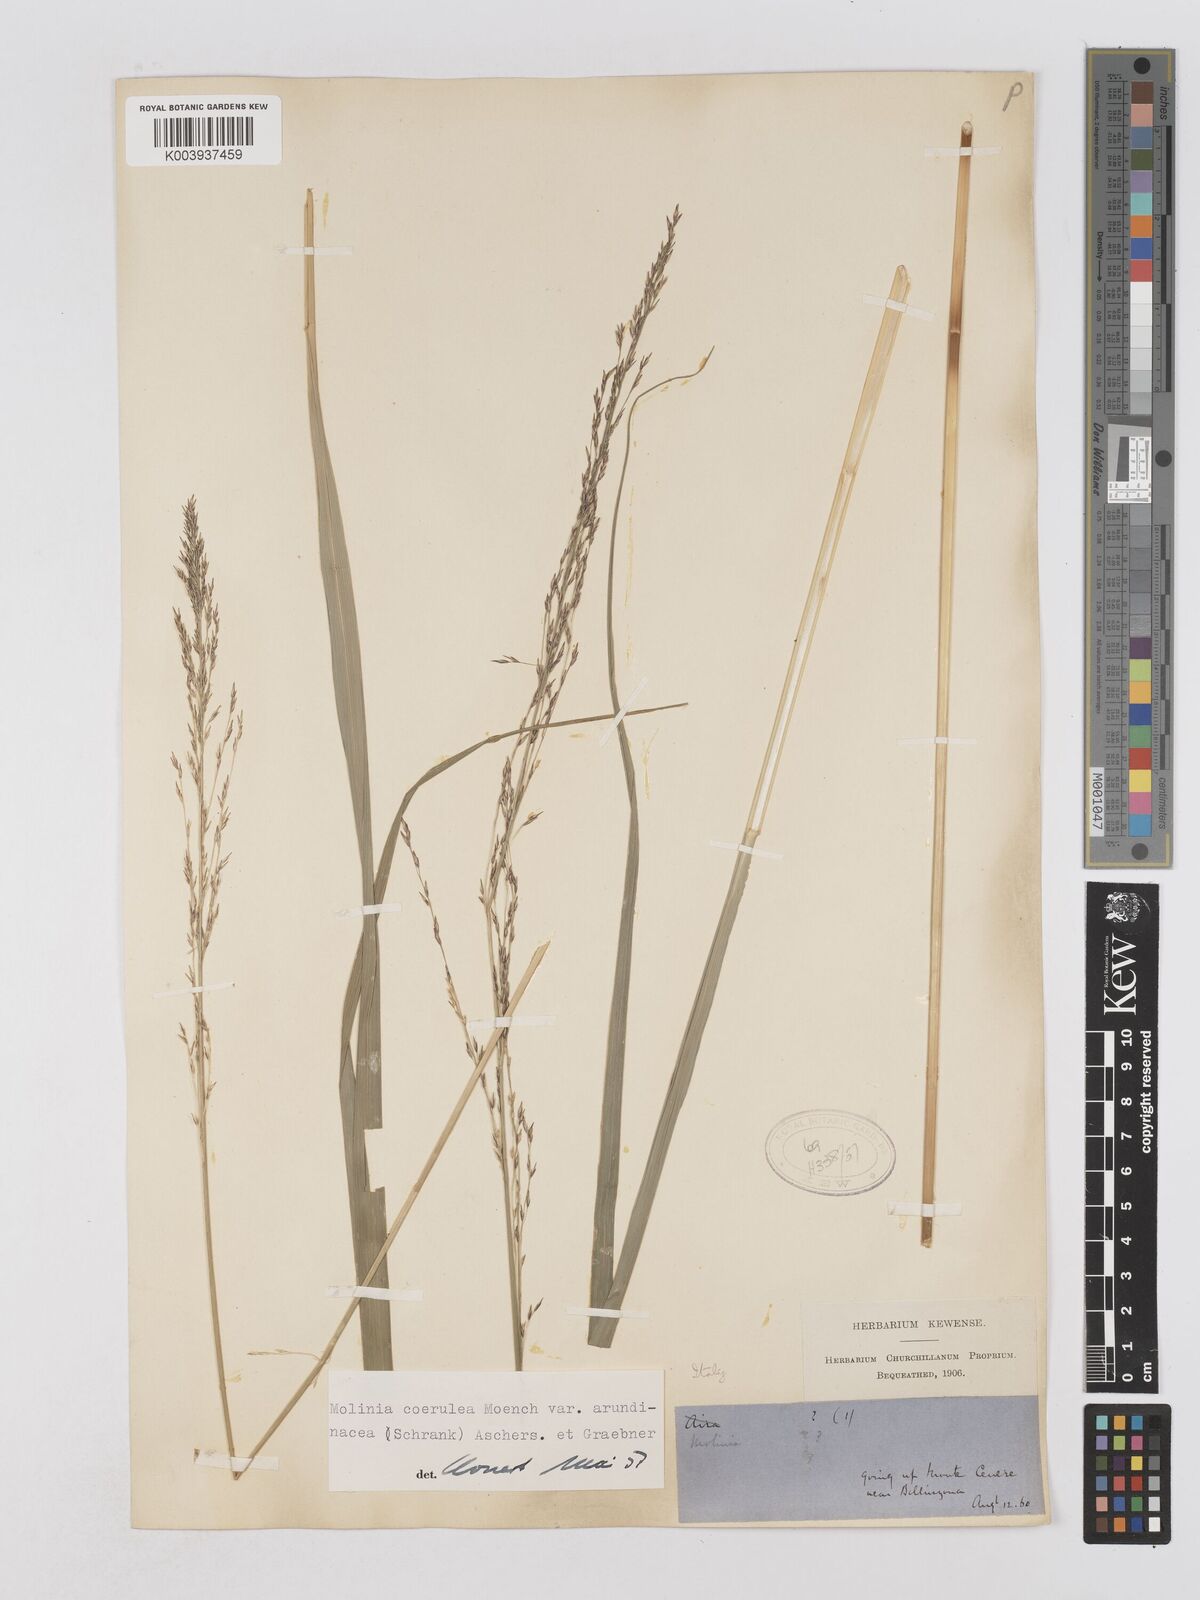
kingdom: Plantae
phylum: Tracheophyta
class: Liliopsida
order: Poales
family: Poaceae
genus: Molinia
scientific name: Molinia caerulea
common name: Purple moor-grass
